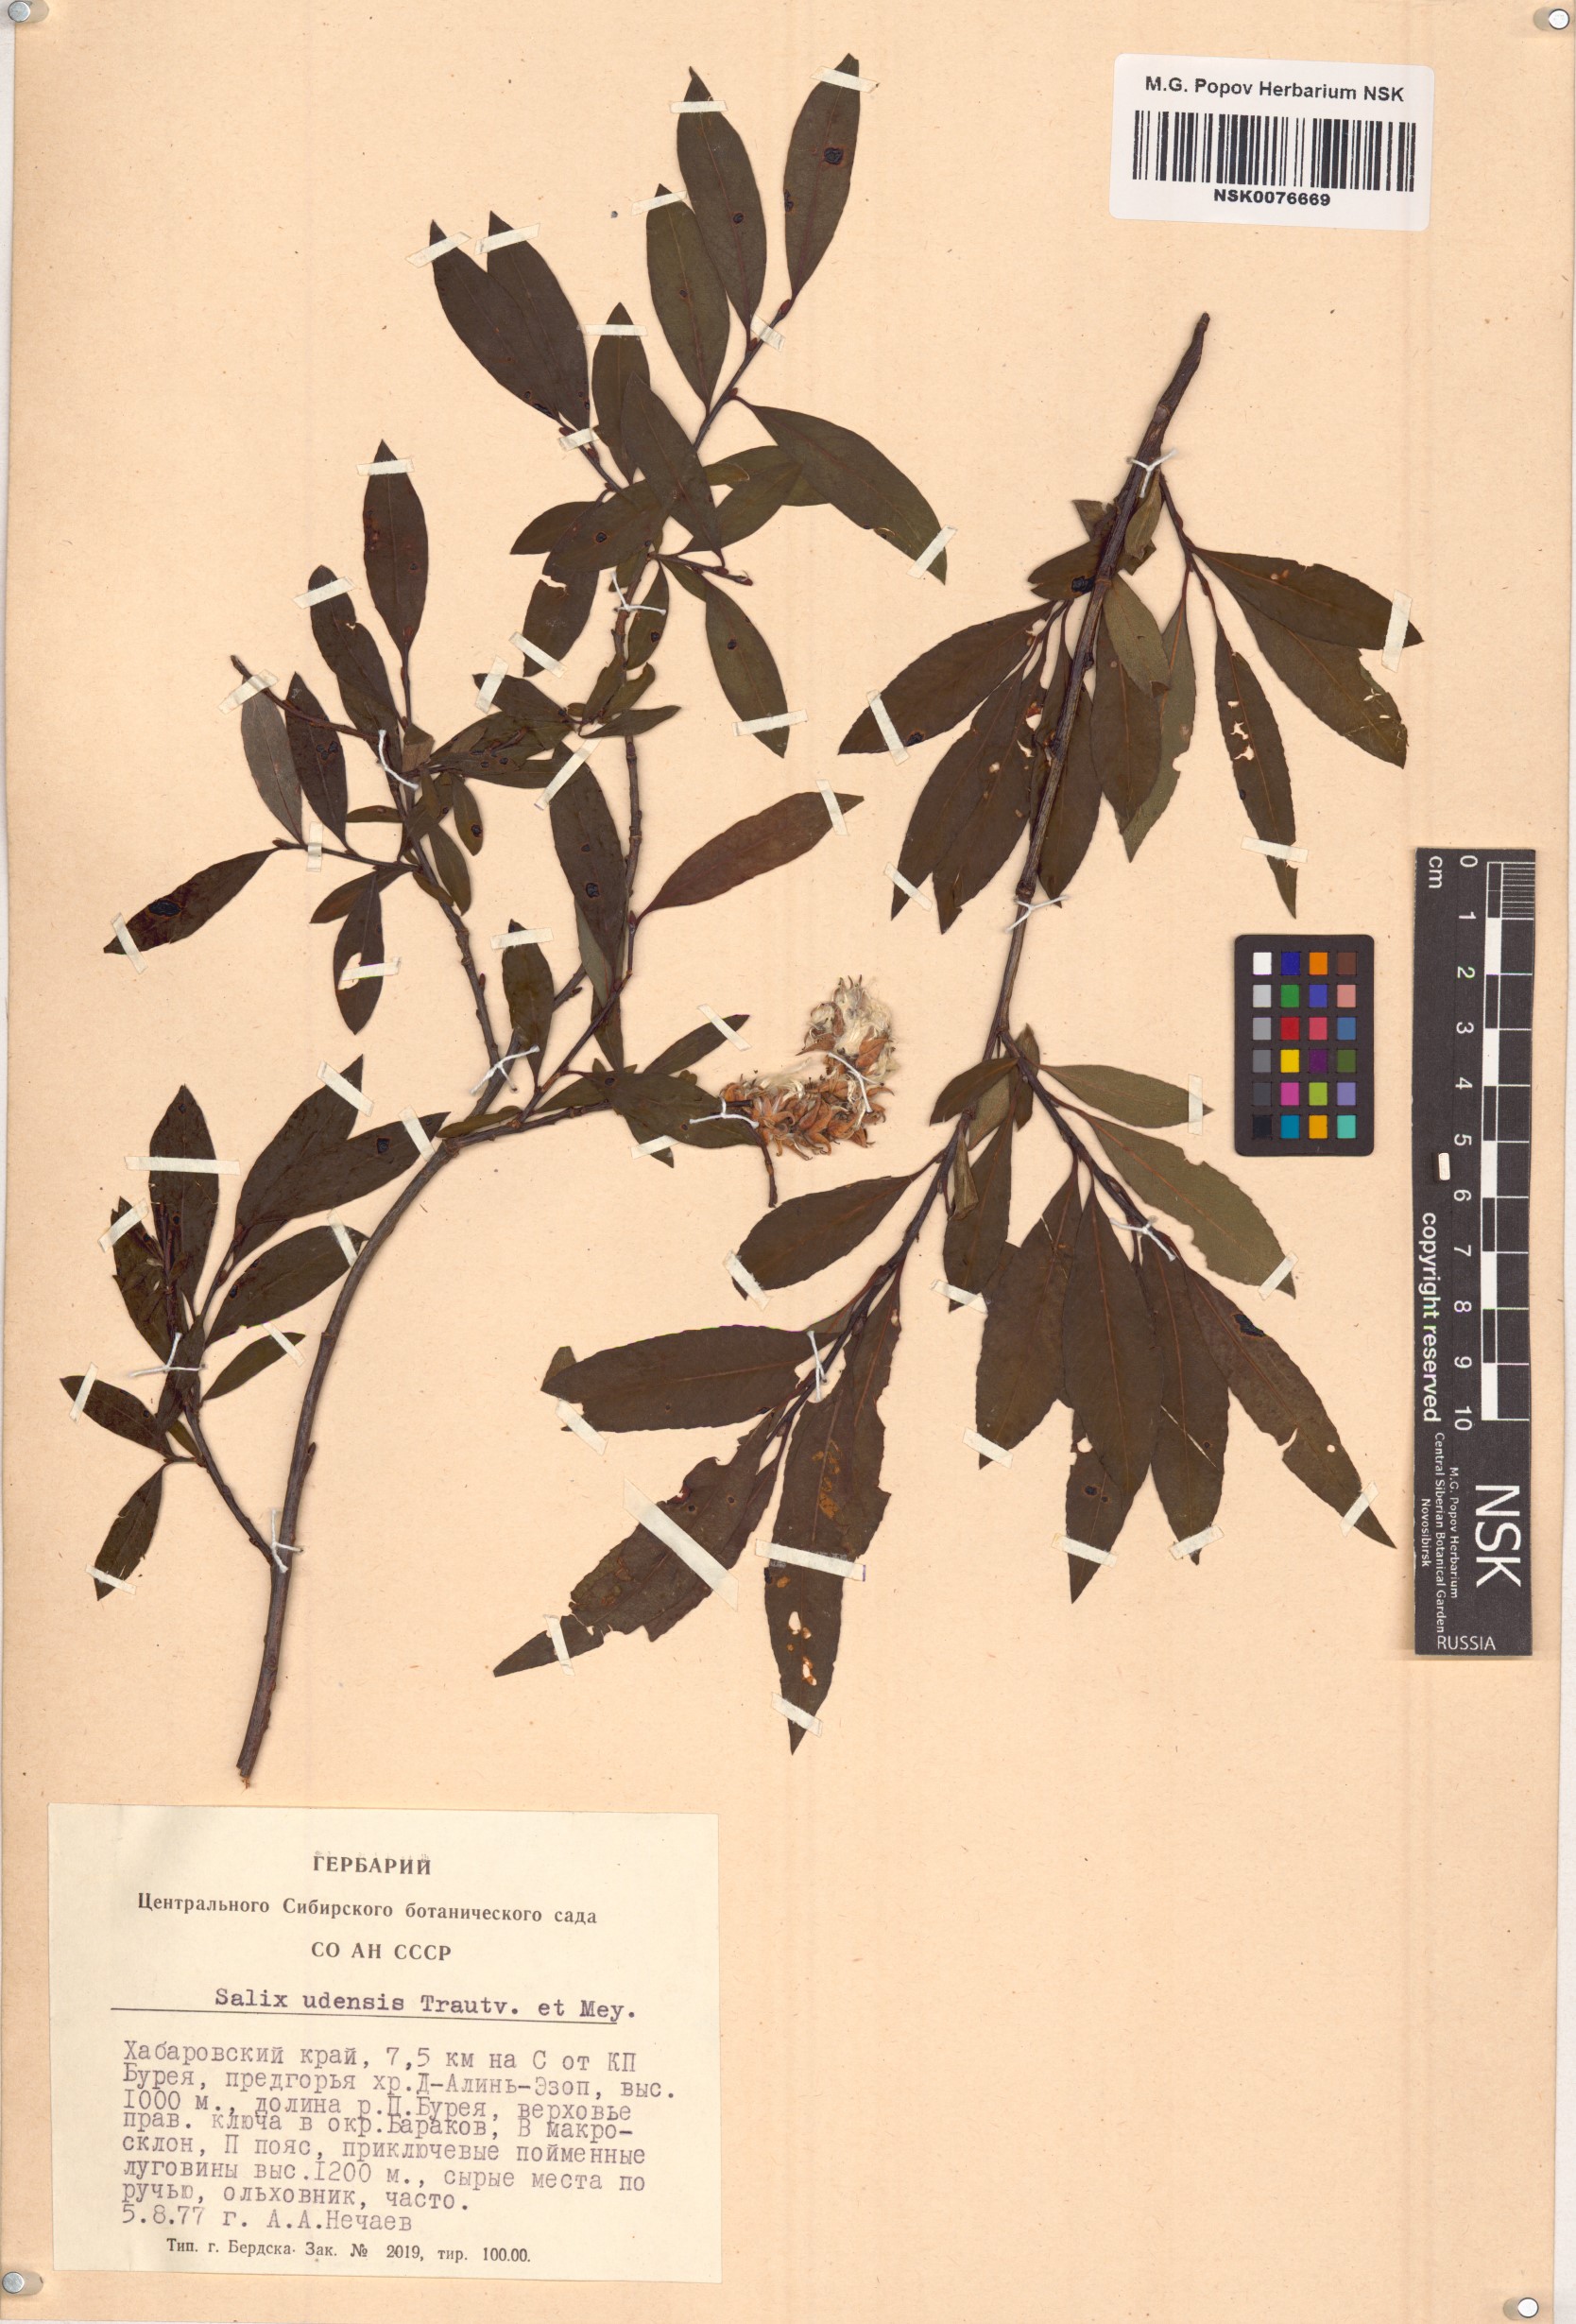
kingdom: Plantae
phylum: Tracheophyta
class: Magnoliopsida
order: Malpighiales
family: Salicaceae
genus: Salix
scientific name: Salix udensis
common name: Sachalin willow
